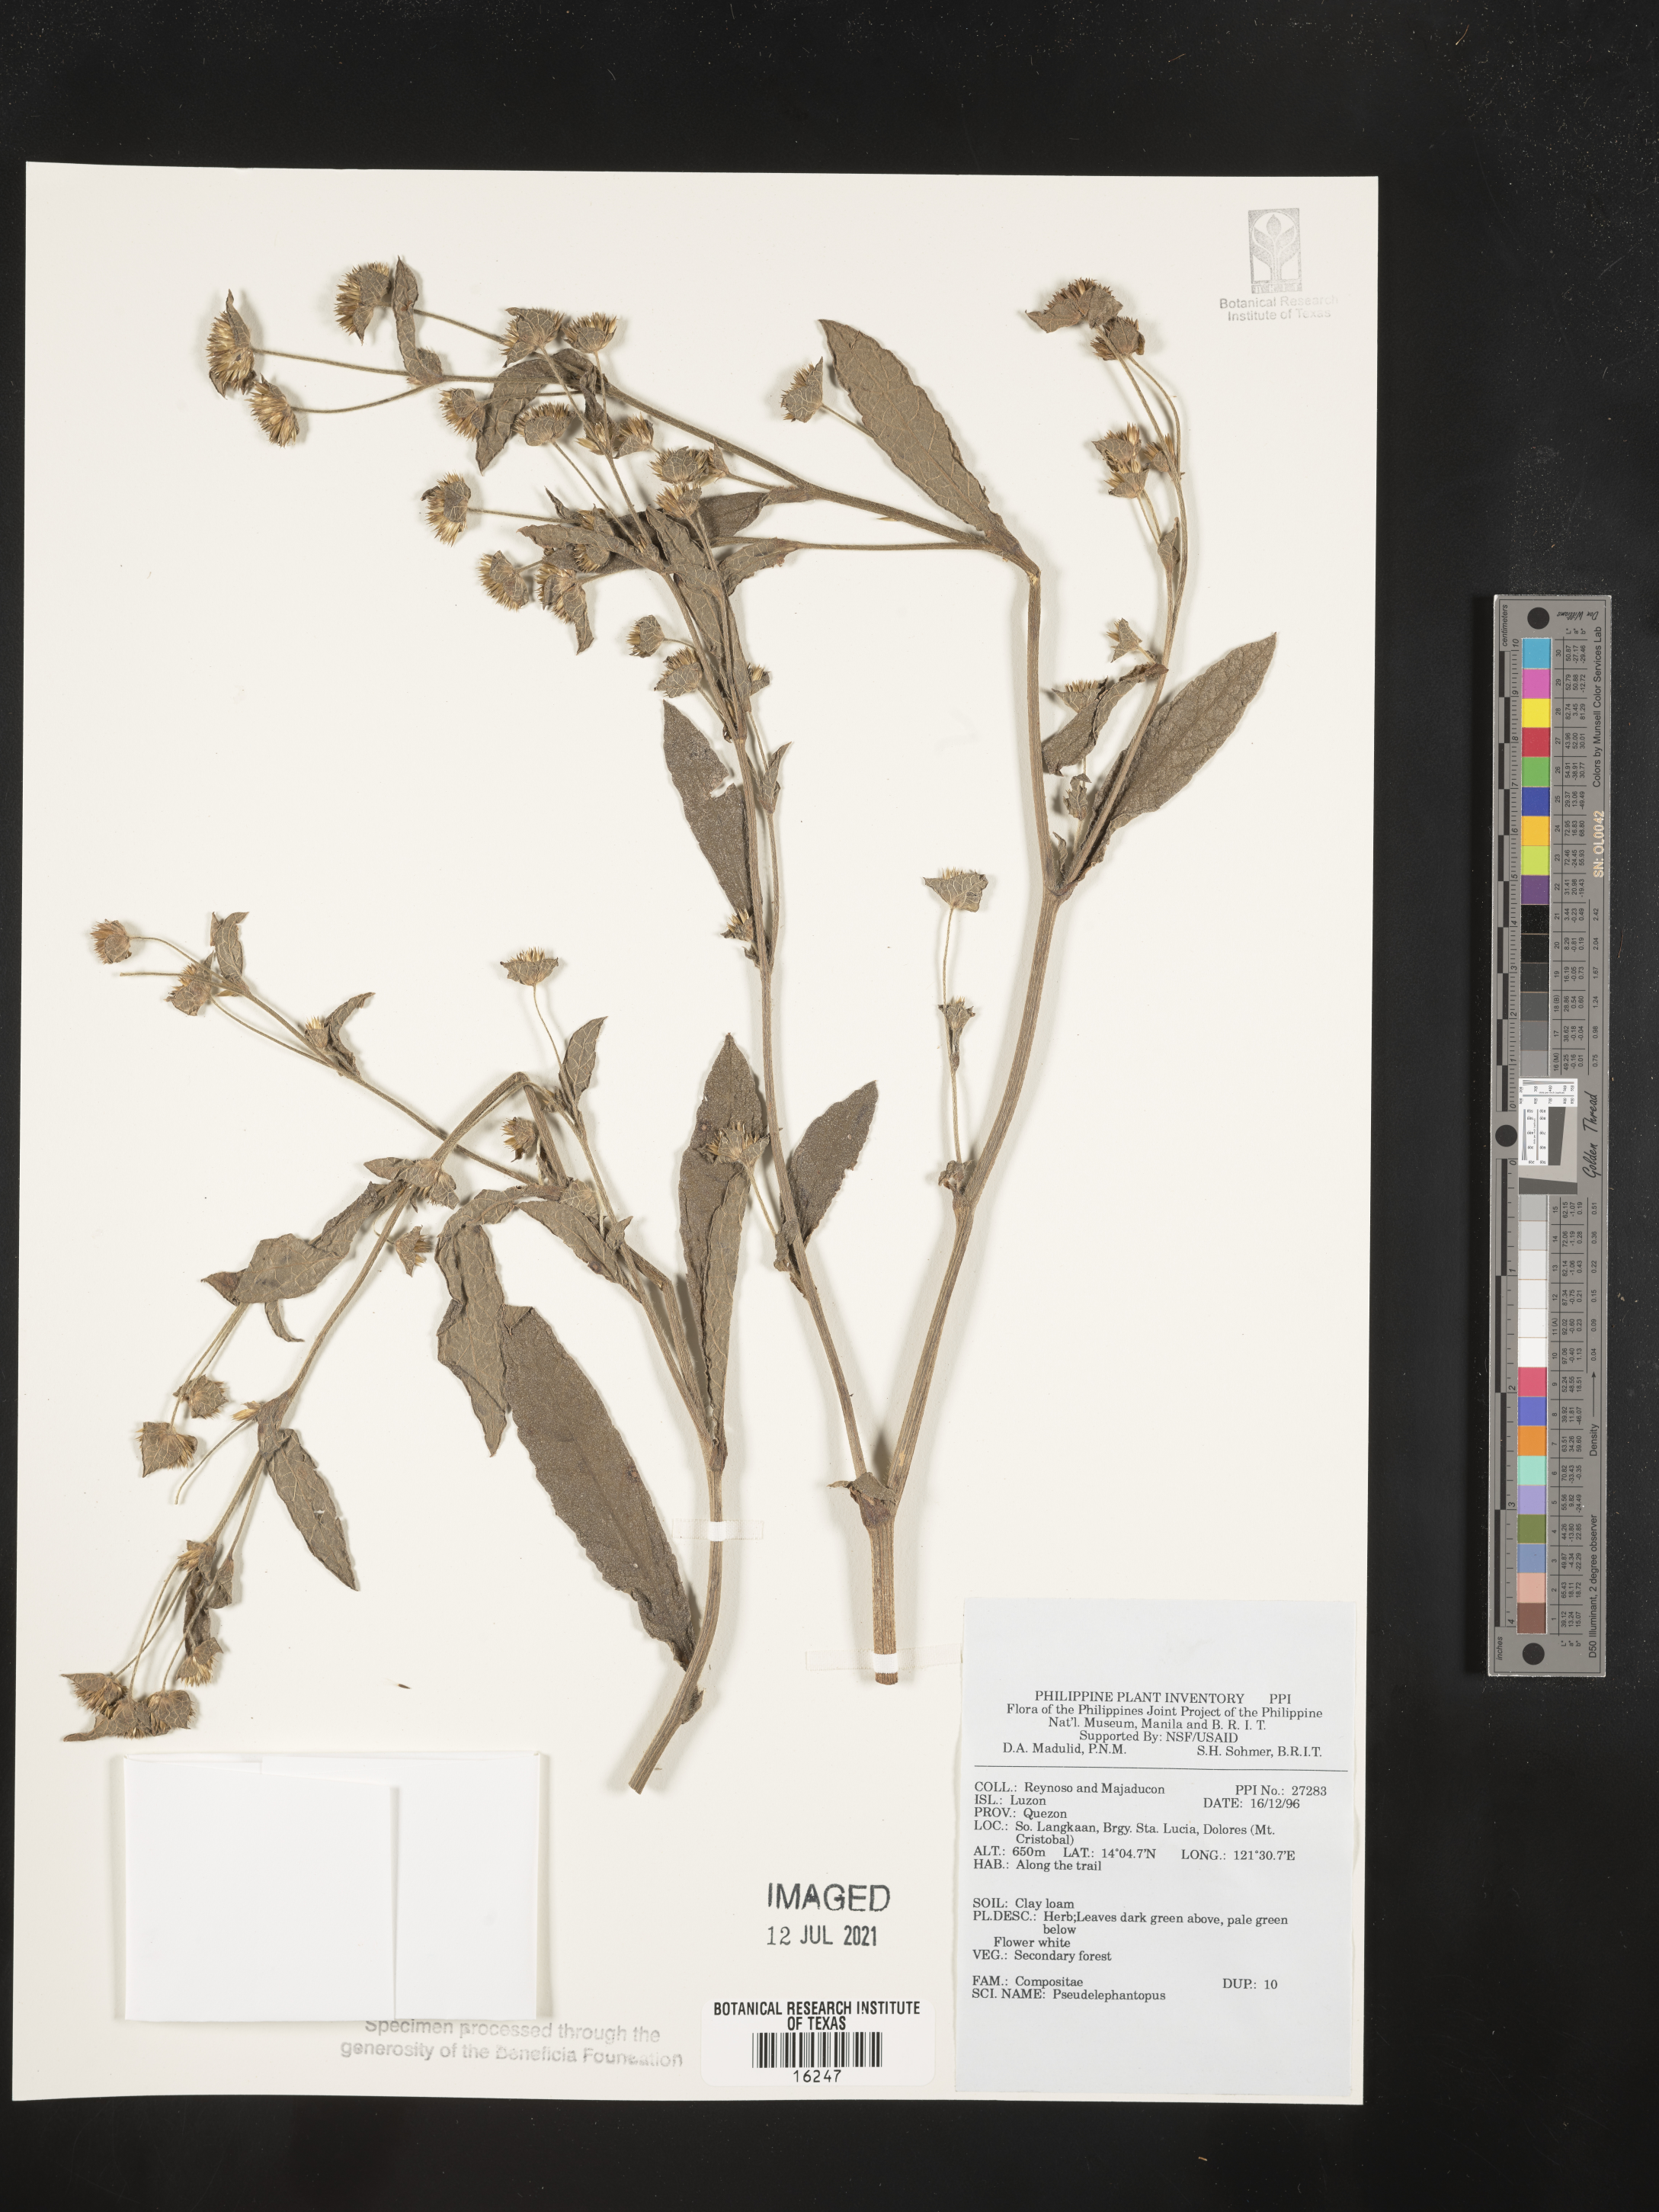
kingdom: Plantae
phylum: Tracheophyta
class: Magnoliopsida
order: Asterales
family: Asteraceae
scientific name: Asteraceae
